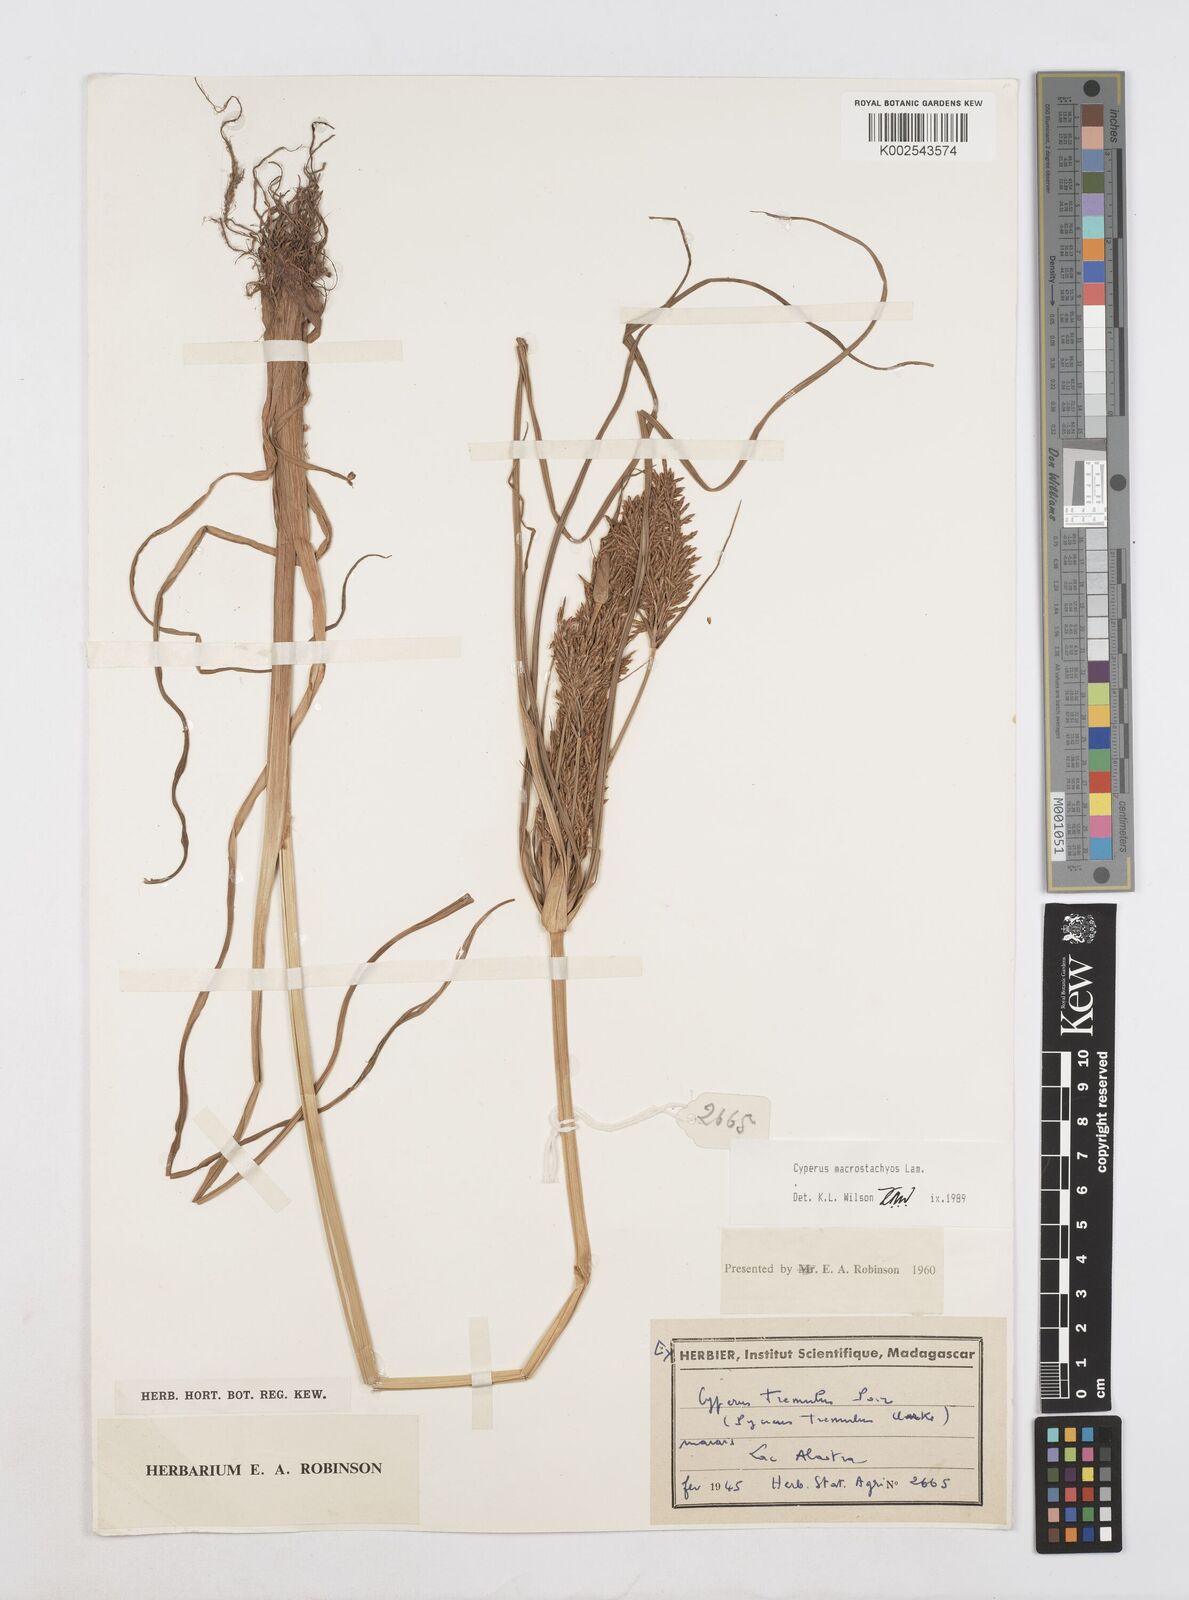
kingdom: Plantae
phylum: Tracheophyta
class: Liliopsida
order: Poales
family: Cyperaceae
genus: Cyperus
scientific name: Cyperus macrostachyos
